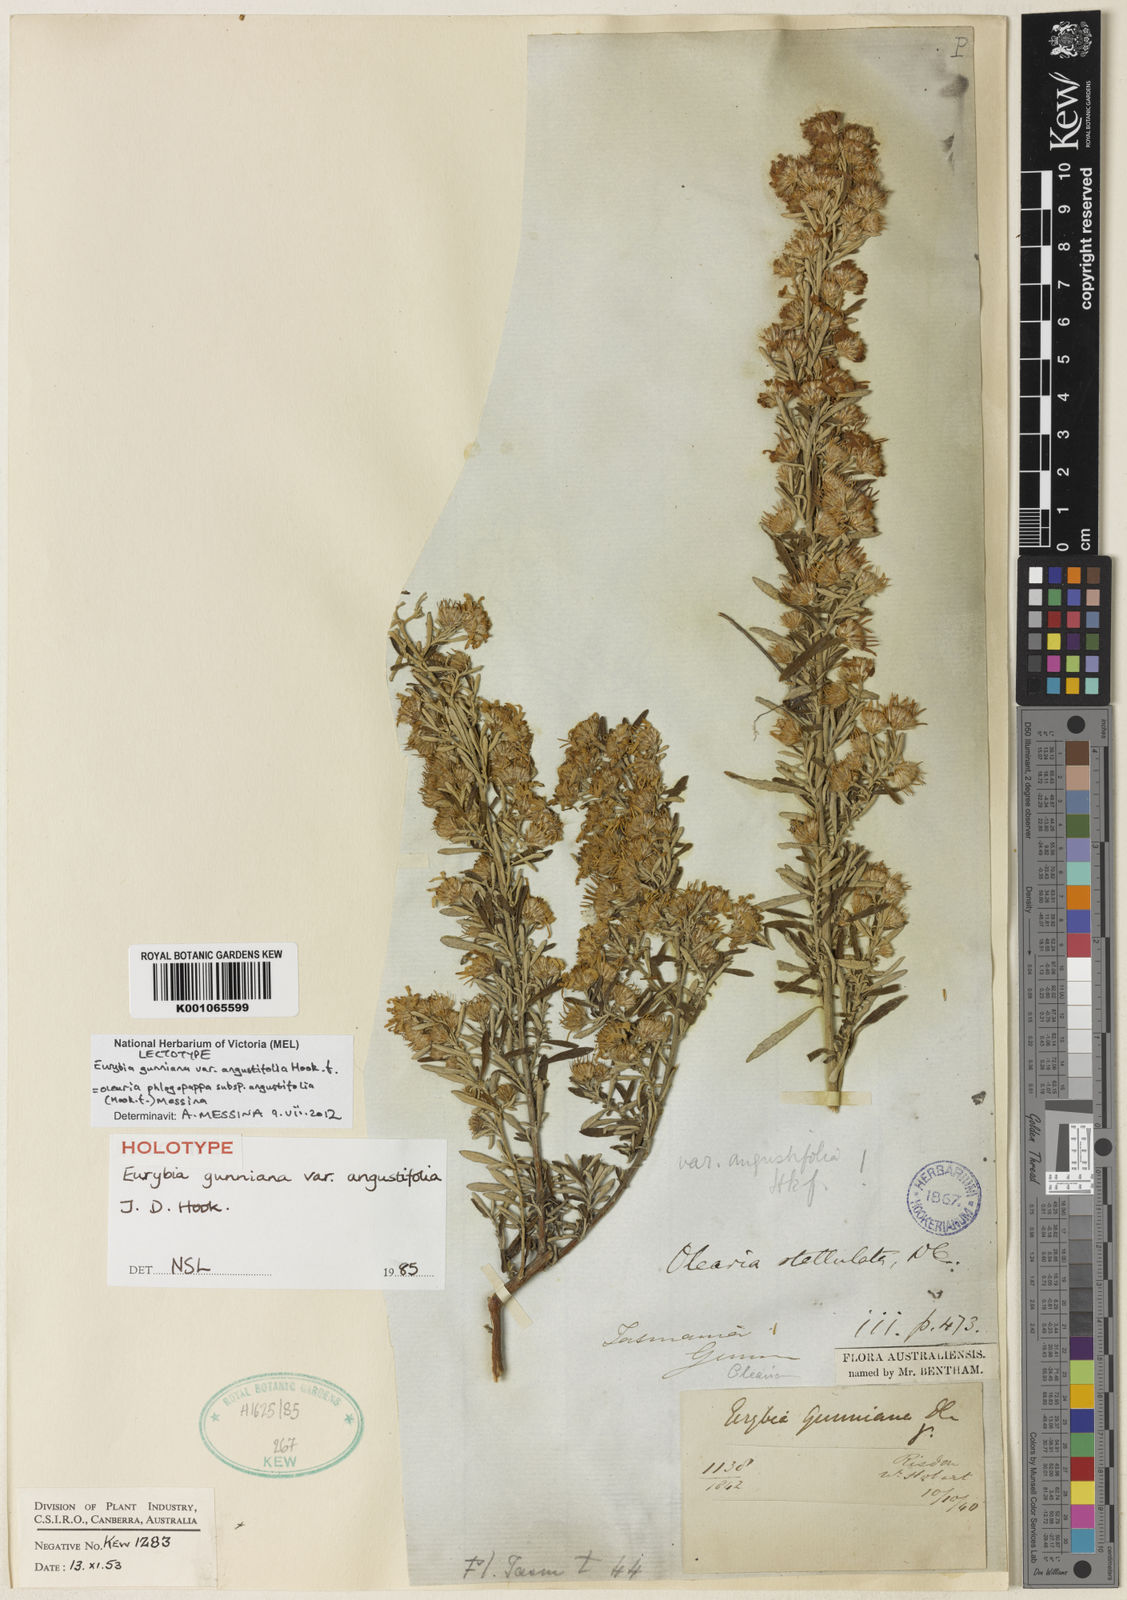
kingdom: Plantae
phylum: Tracheophyta
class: Magnoliopsida
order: Asterales
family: Asteraceae
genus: Olearia
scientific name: Olearia phlogopappa
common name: Alpine daisybush
